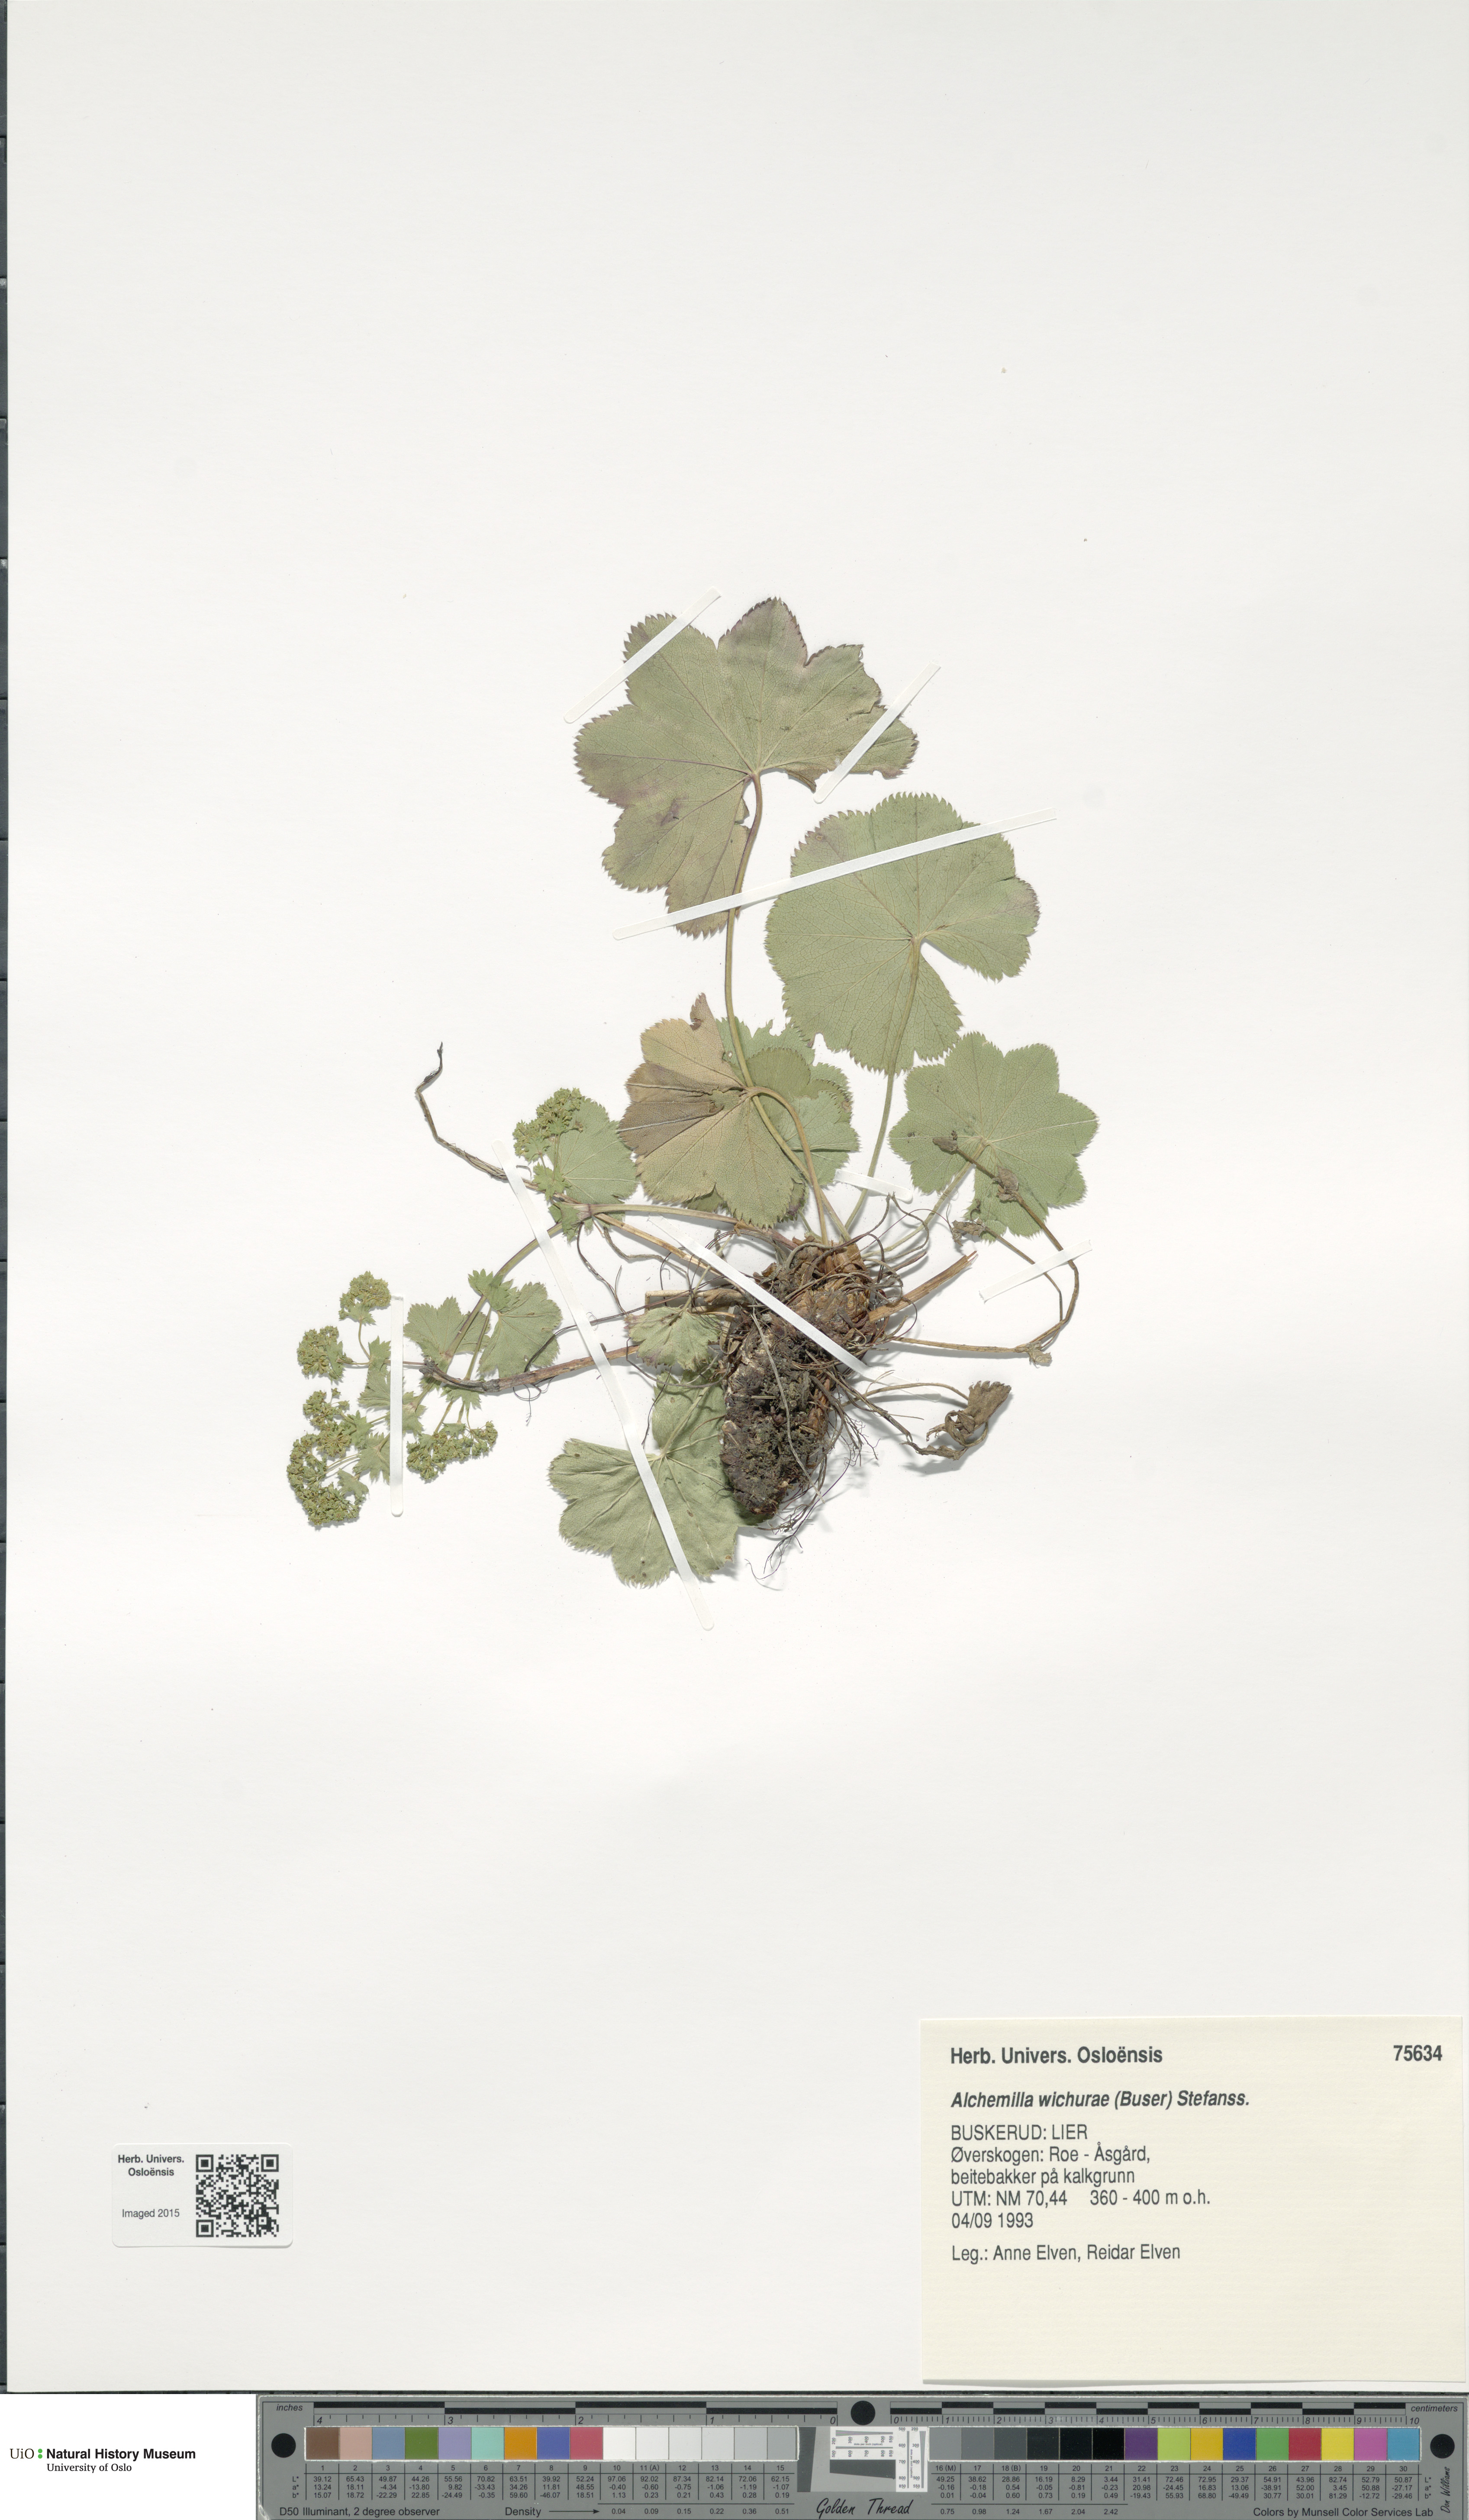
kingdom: Plantae
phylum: Tracheophyta
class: Magnoliopsida
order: Rosales
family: Rosaceae
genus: Alchemilla
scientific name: Alchemilla wichurae
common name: Rock lady's mantle
